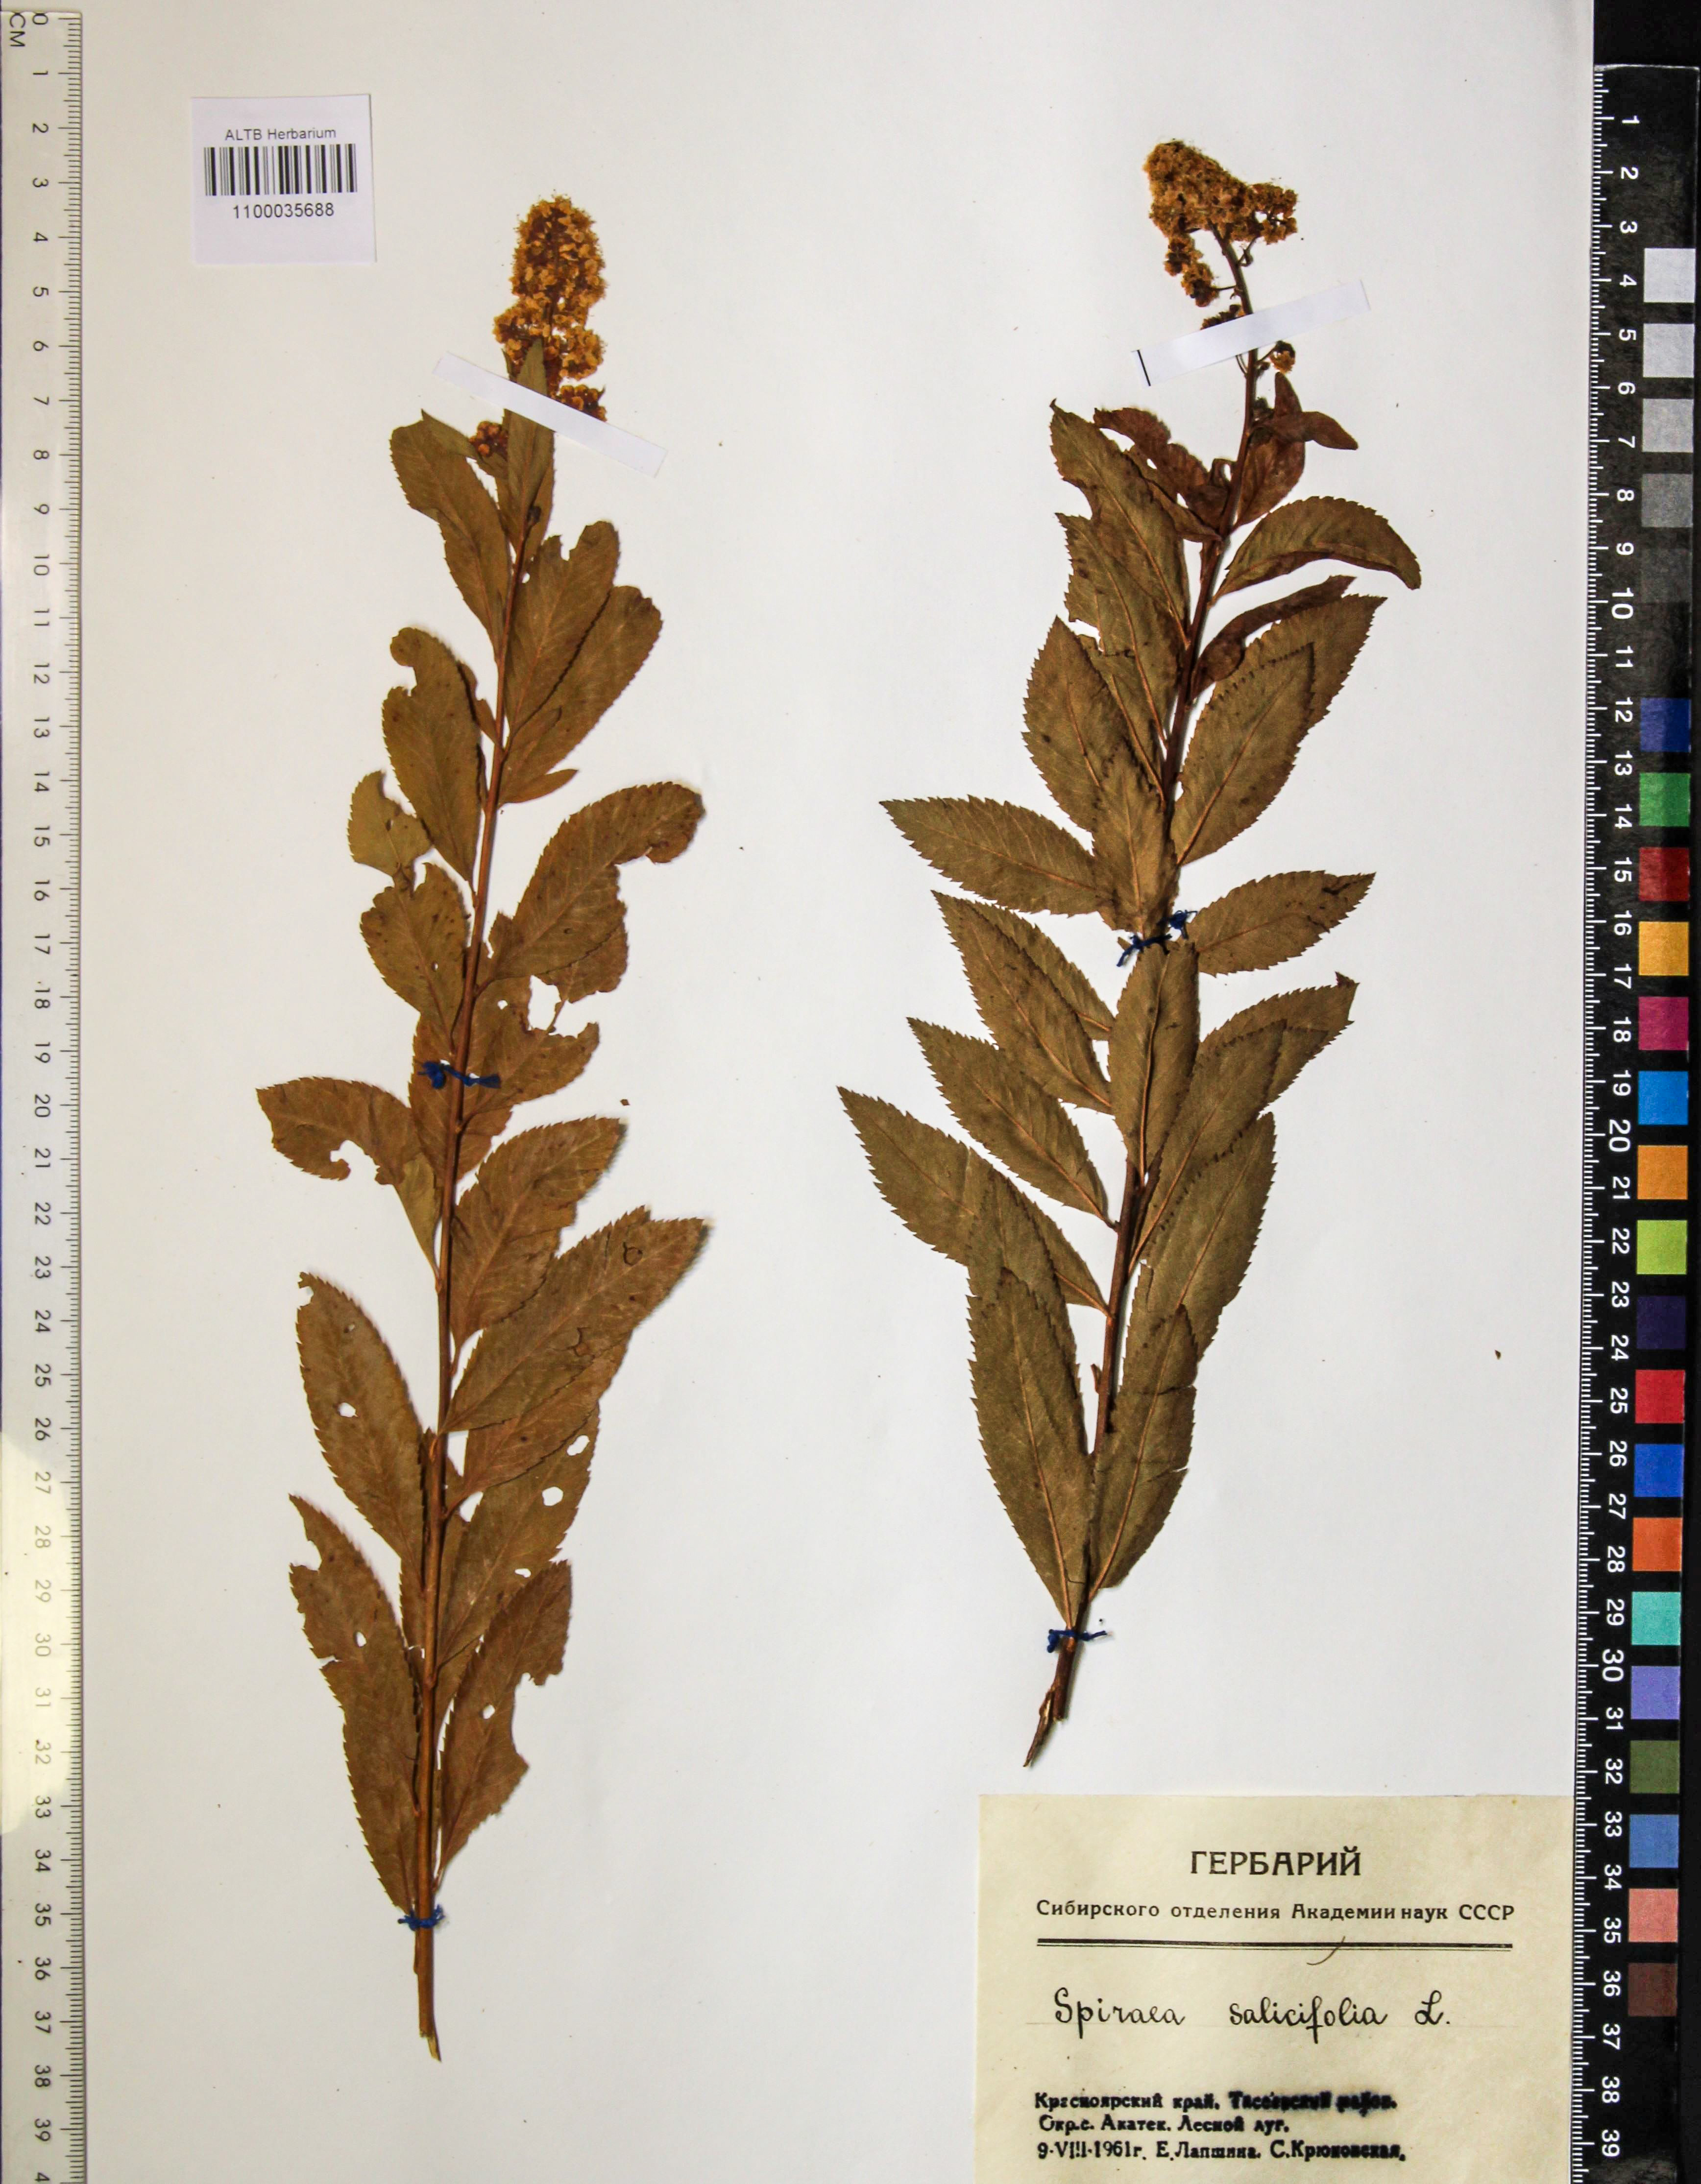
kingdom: Plantae
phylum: Tracheophyta
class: Magnoliopsida
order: Rosales
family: Rosaceae
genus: Spiraea
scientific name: Spiraea salicifolia
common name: Bridewort
